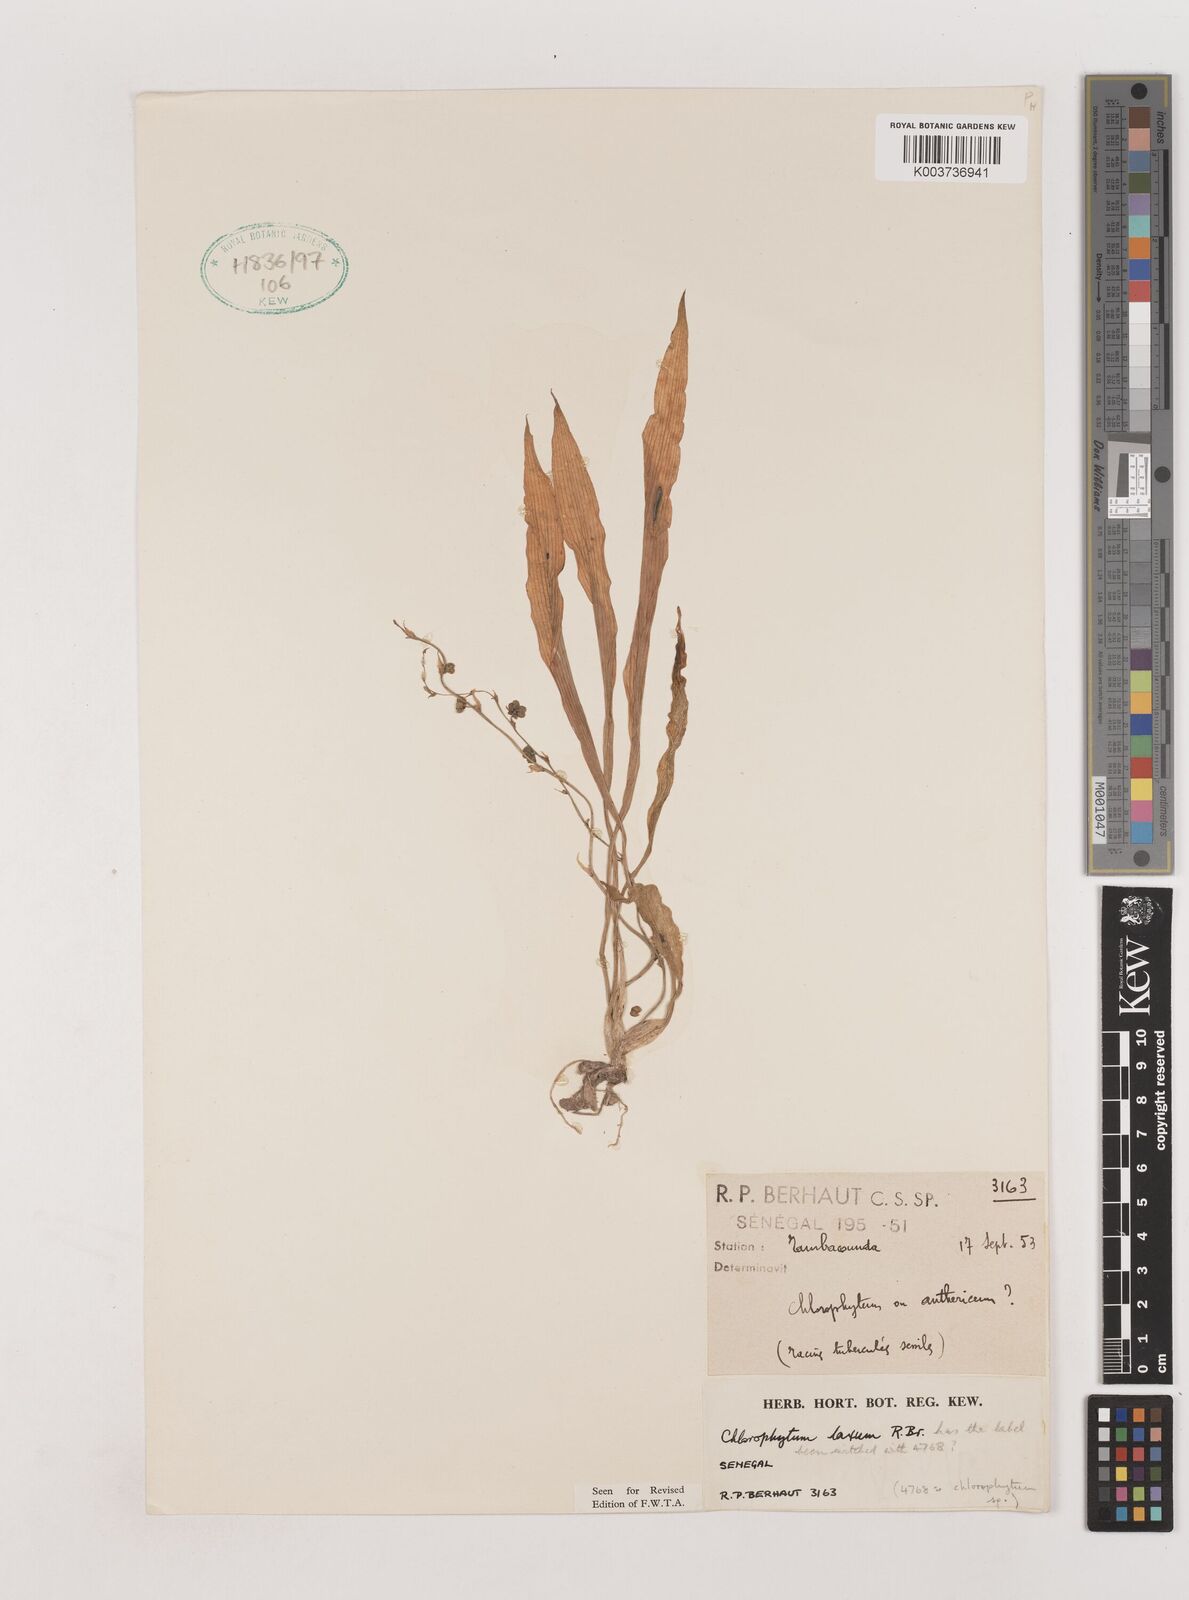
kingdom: Plantae
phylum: Tracheophyta
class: Liliopsida
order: Asparagales
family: Asparagaceae
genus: Chlorophytum
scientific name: Chlorophytum laxum
